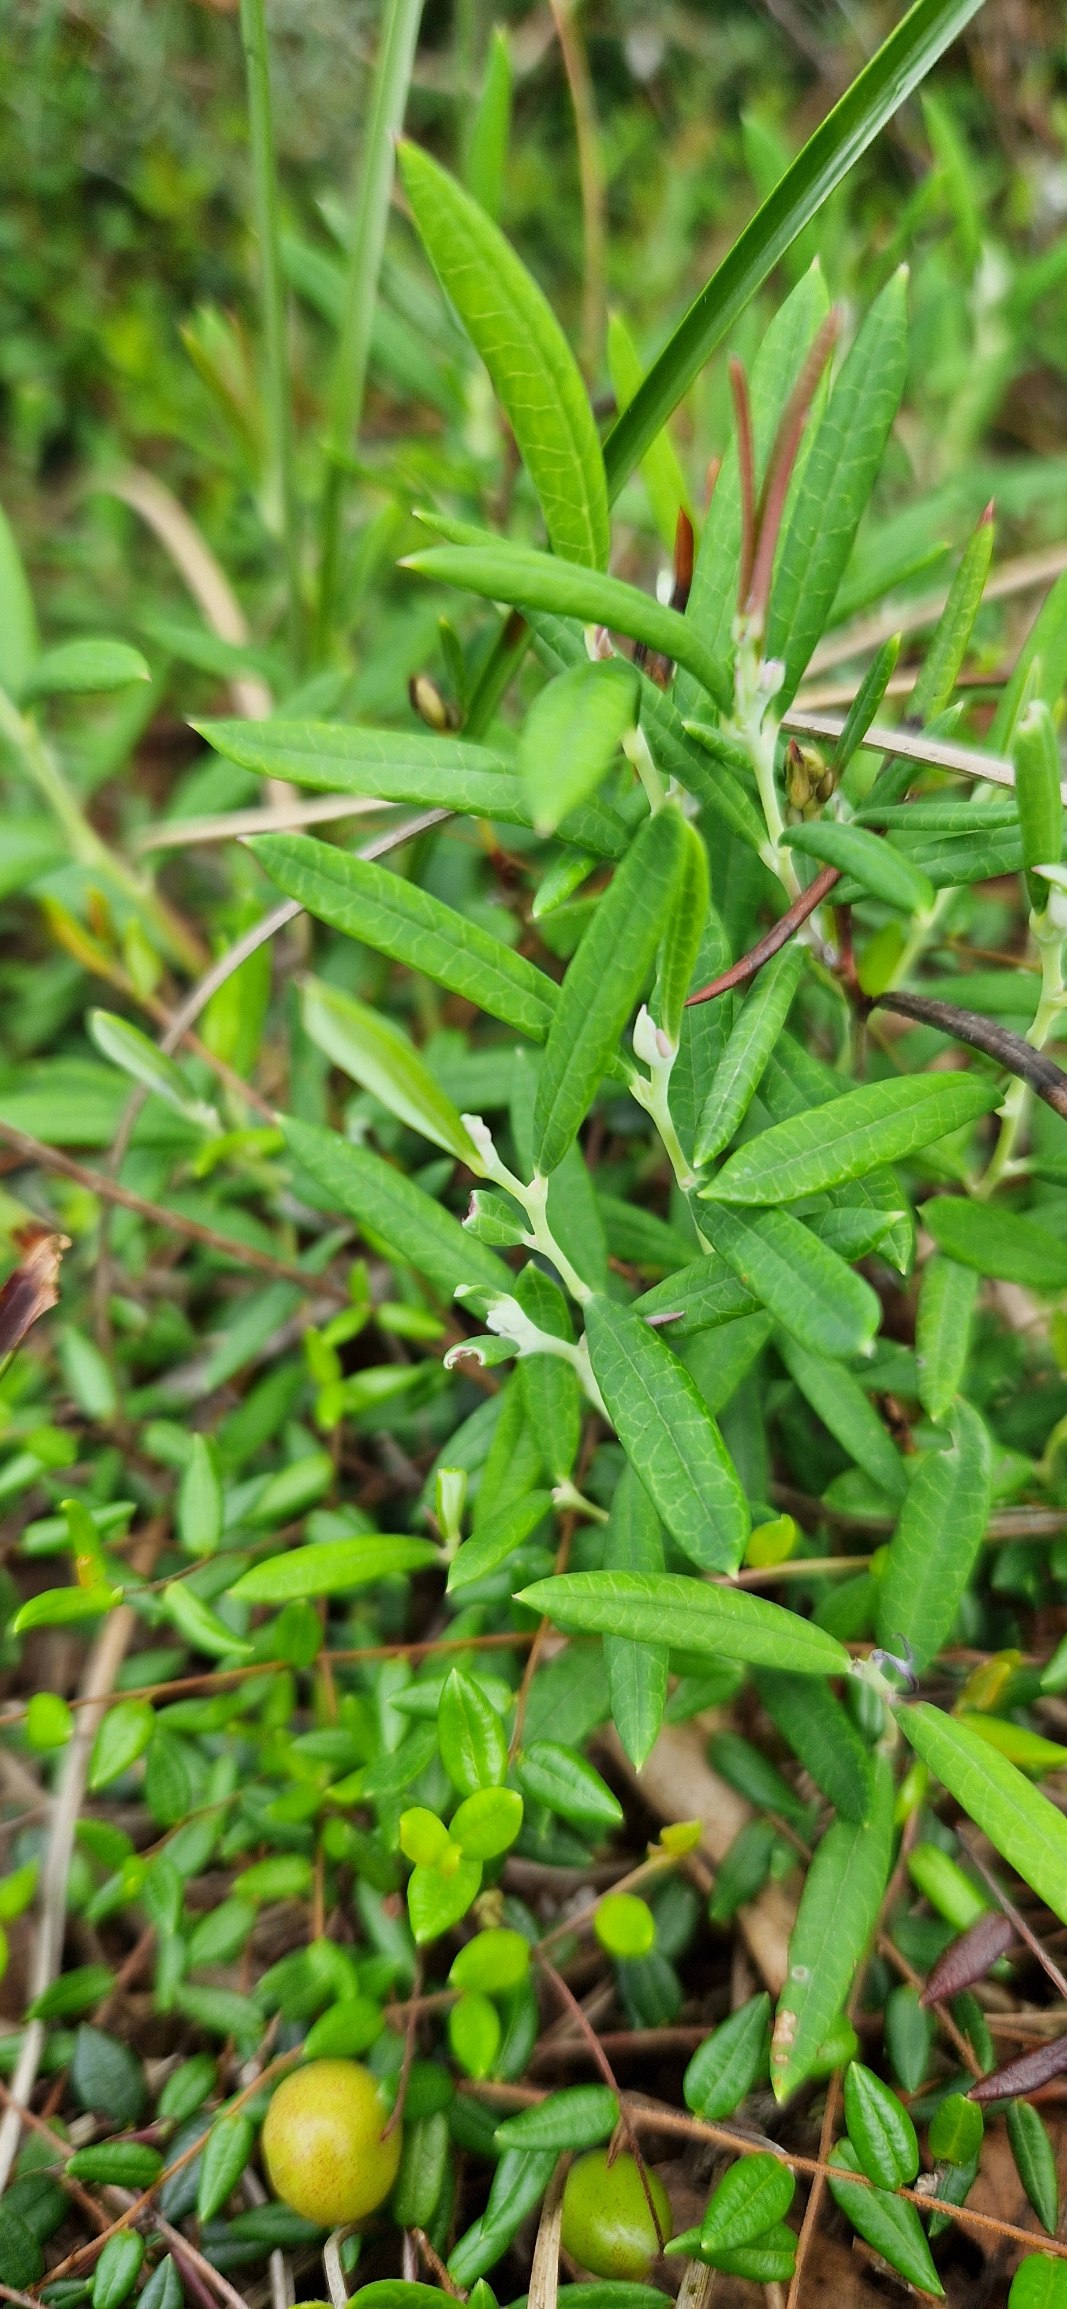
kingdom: Plantae
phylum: Tracheophyta
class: Magnoliopsida
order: Ericales
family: Ericaceae
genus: Andromeda
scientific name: Andromeda polifolia
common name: Rosmarinlyng
